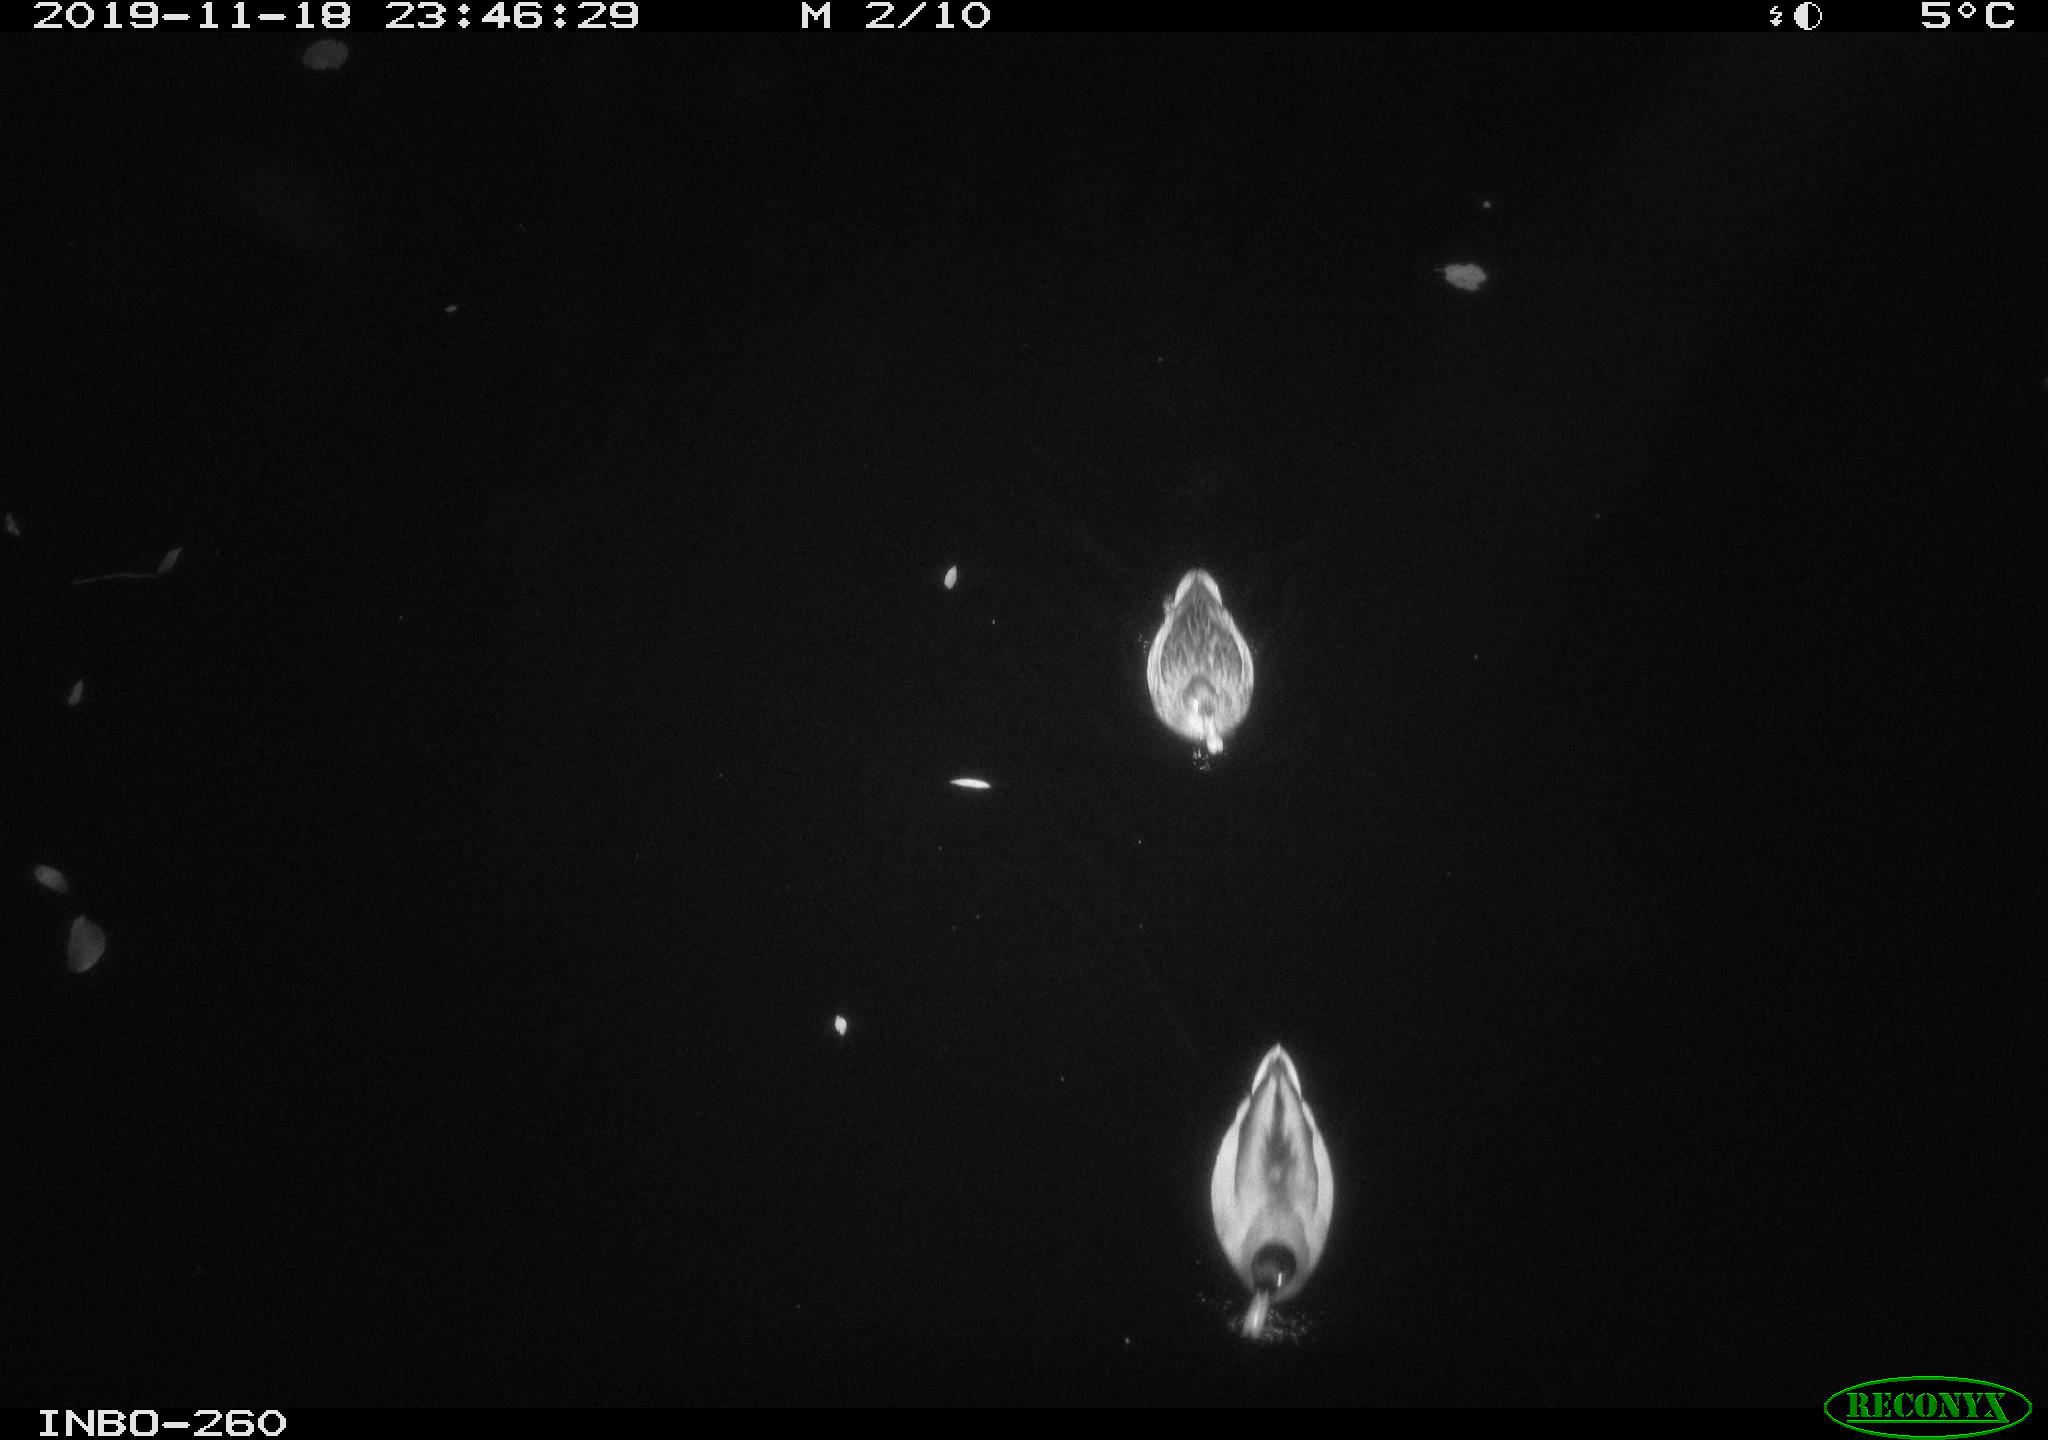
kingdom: Animalia
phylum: Chordata
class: Aves
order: Anseriformes
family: Anatidae
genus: Anas
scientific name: Anas platyrhynchos
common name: Mallard
